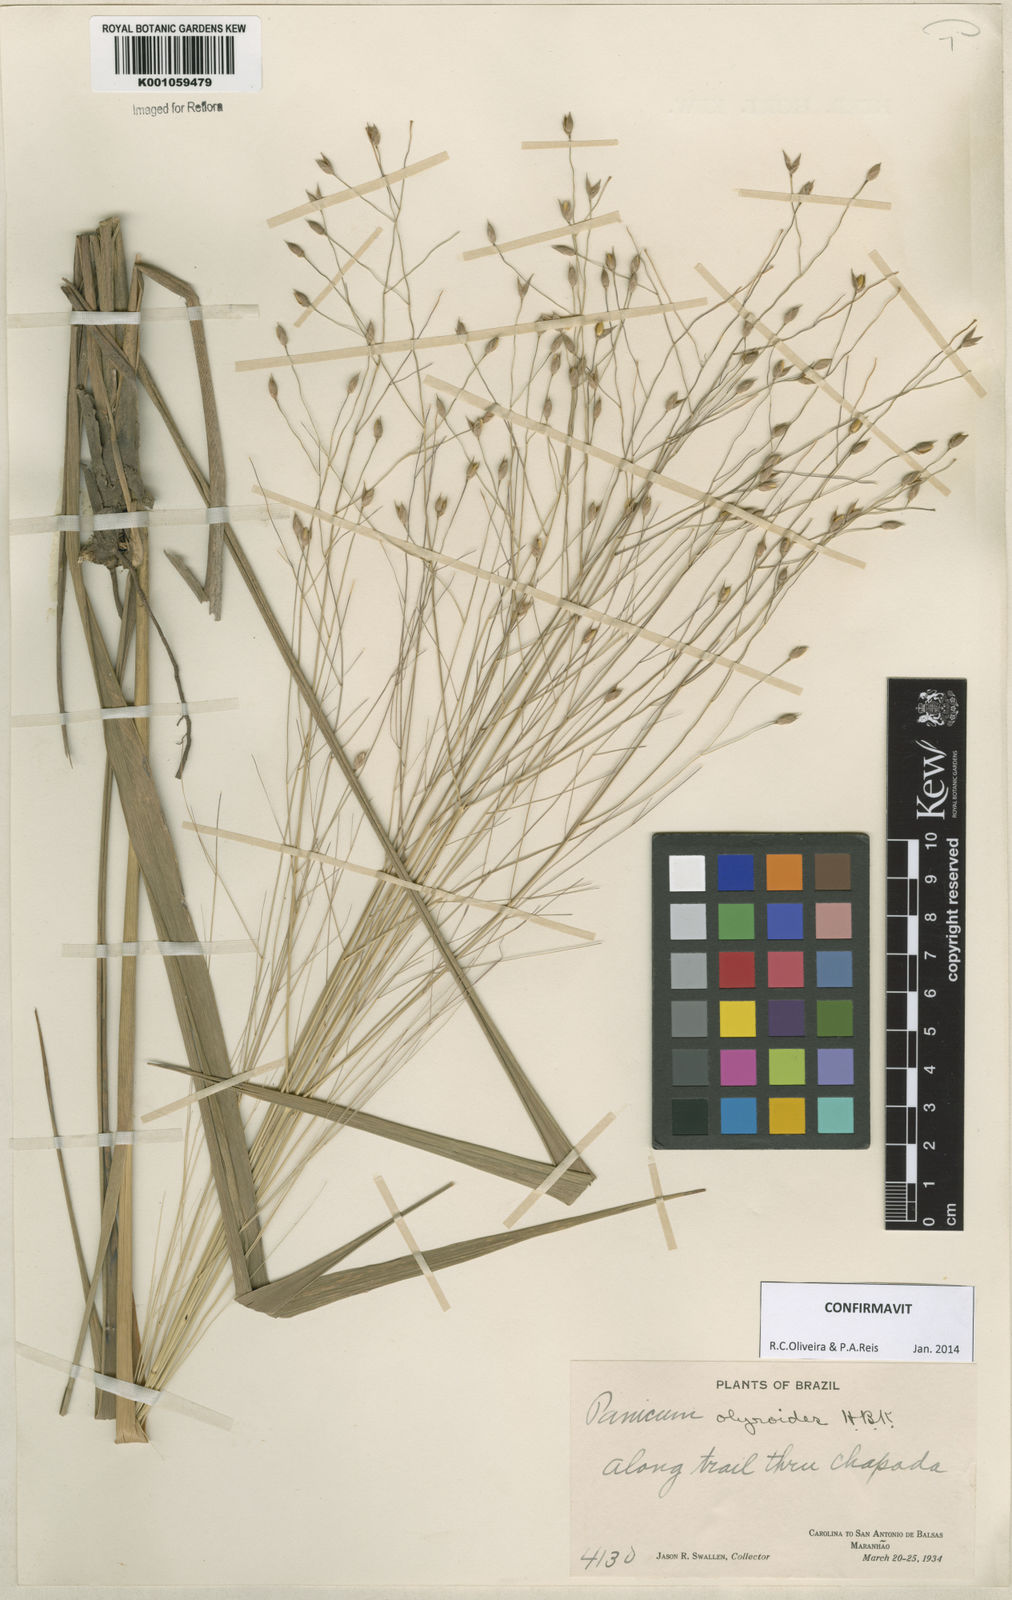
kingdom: Plantae
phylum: Tracheophyta
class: Liliopsida
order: Poales
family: Poaceae
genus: Panicum
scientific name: Panicum olyroides
